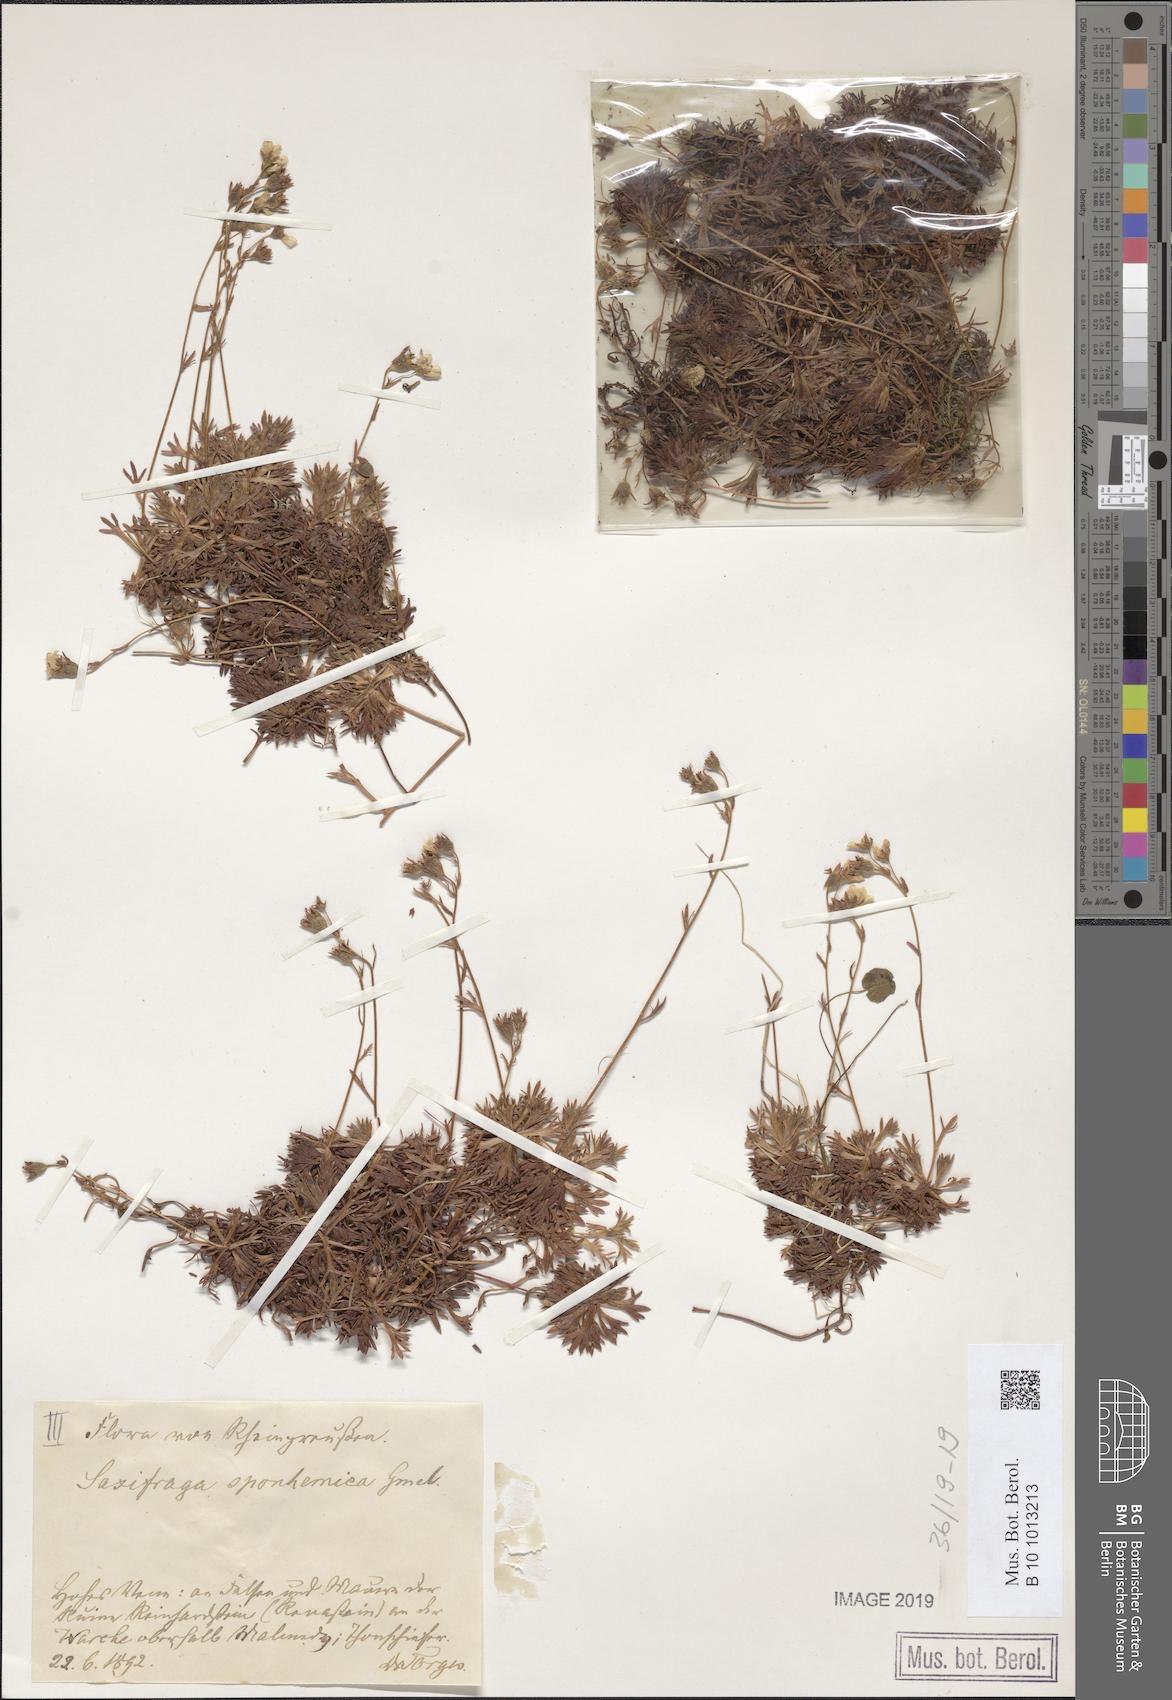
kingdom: Plantae
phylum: Tracheophyta
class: Magnoliopsida
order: Saxifragales
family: Saxifragaceae
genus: Saxifraga
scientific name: Saxifraga rosacea
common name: Irish saxifrage
